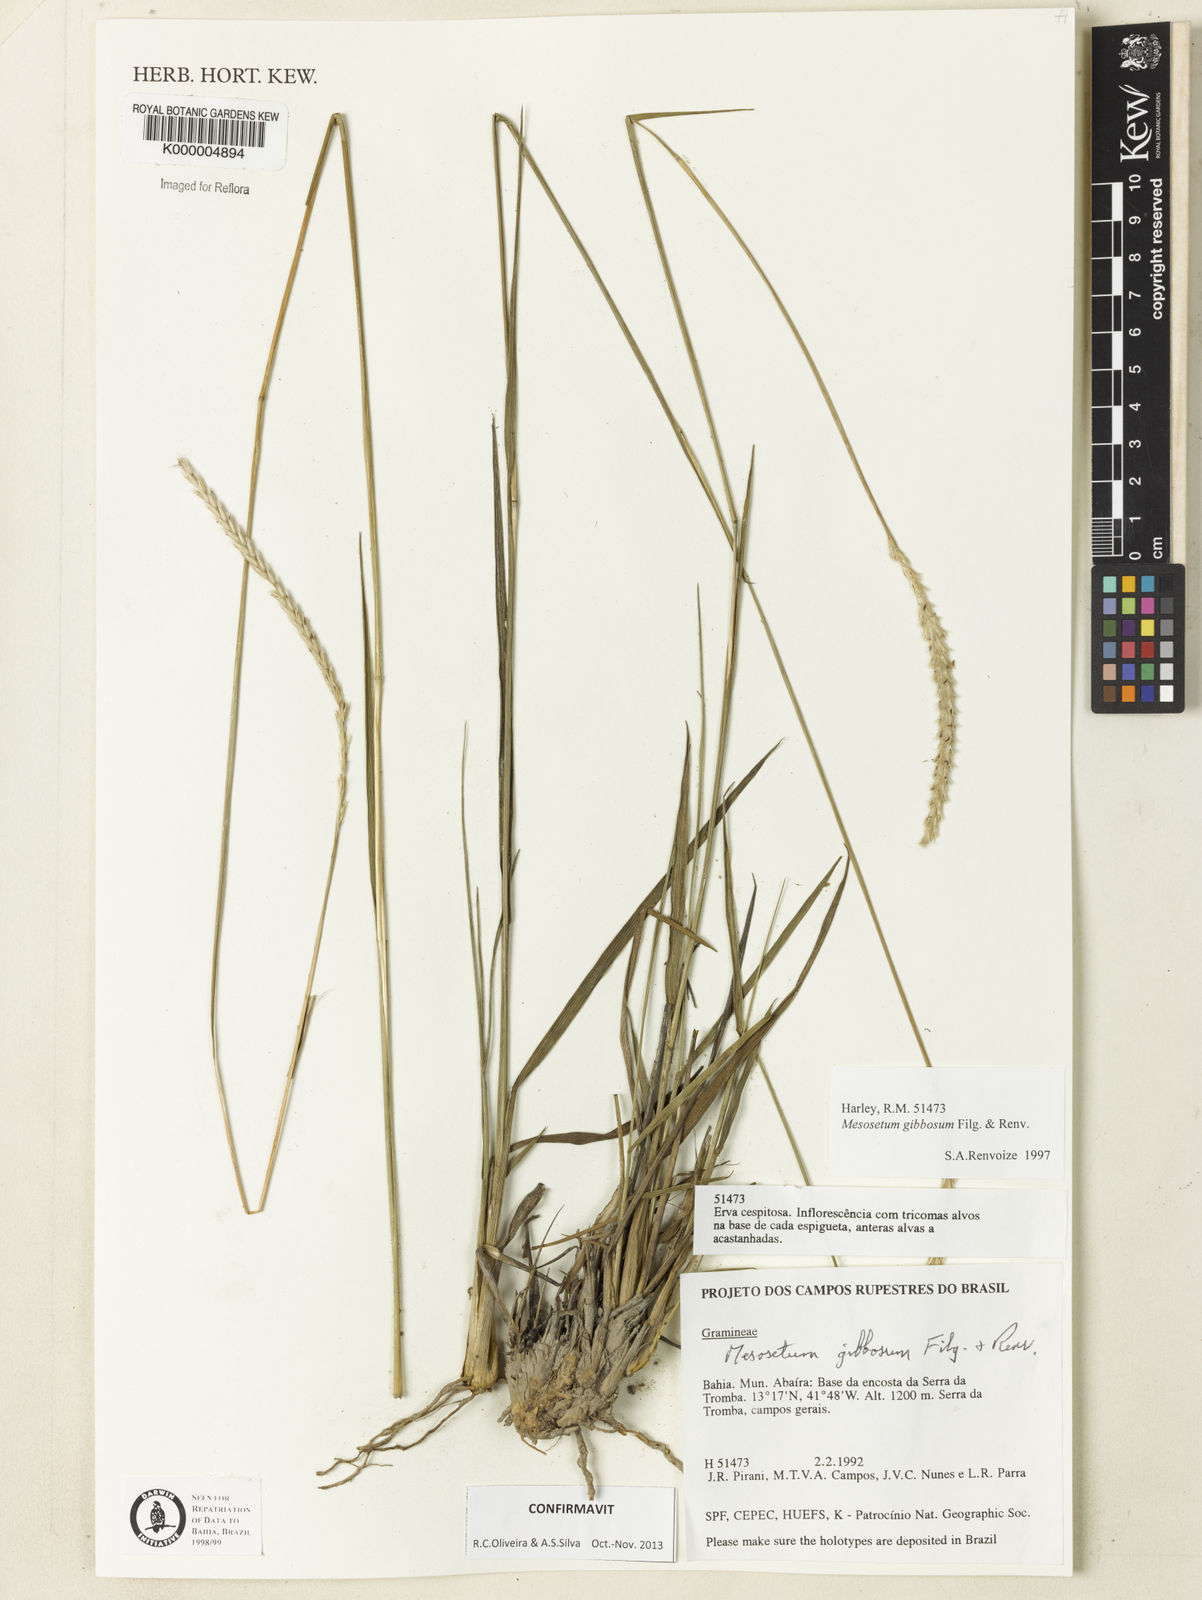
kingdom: Plantae
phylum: Tracheophyta
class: Liliopsida
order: Poales
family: Poaceae
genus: Mesosetum
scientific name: Mesosetum gibbosum
